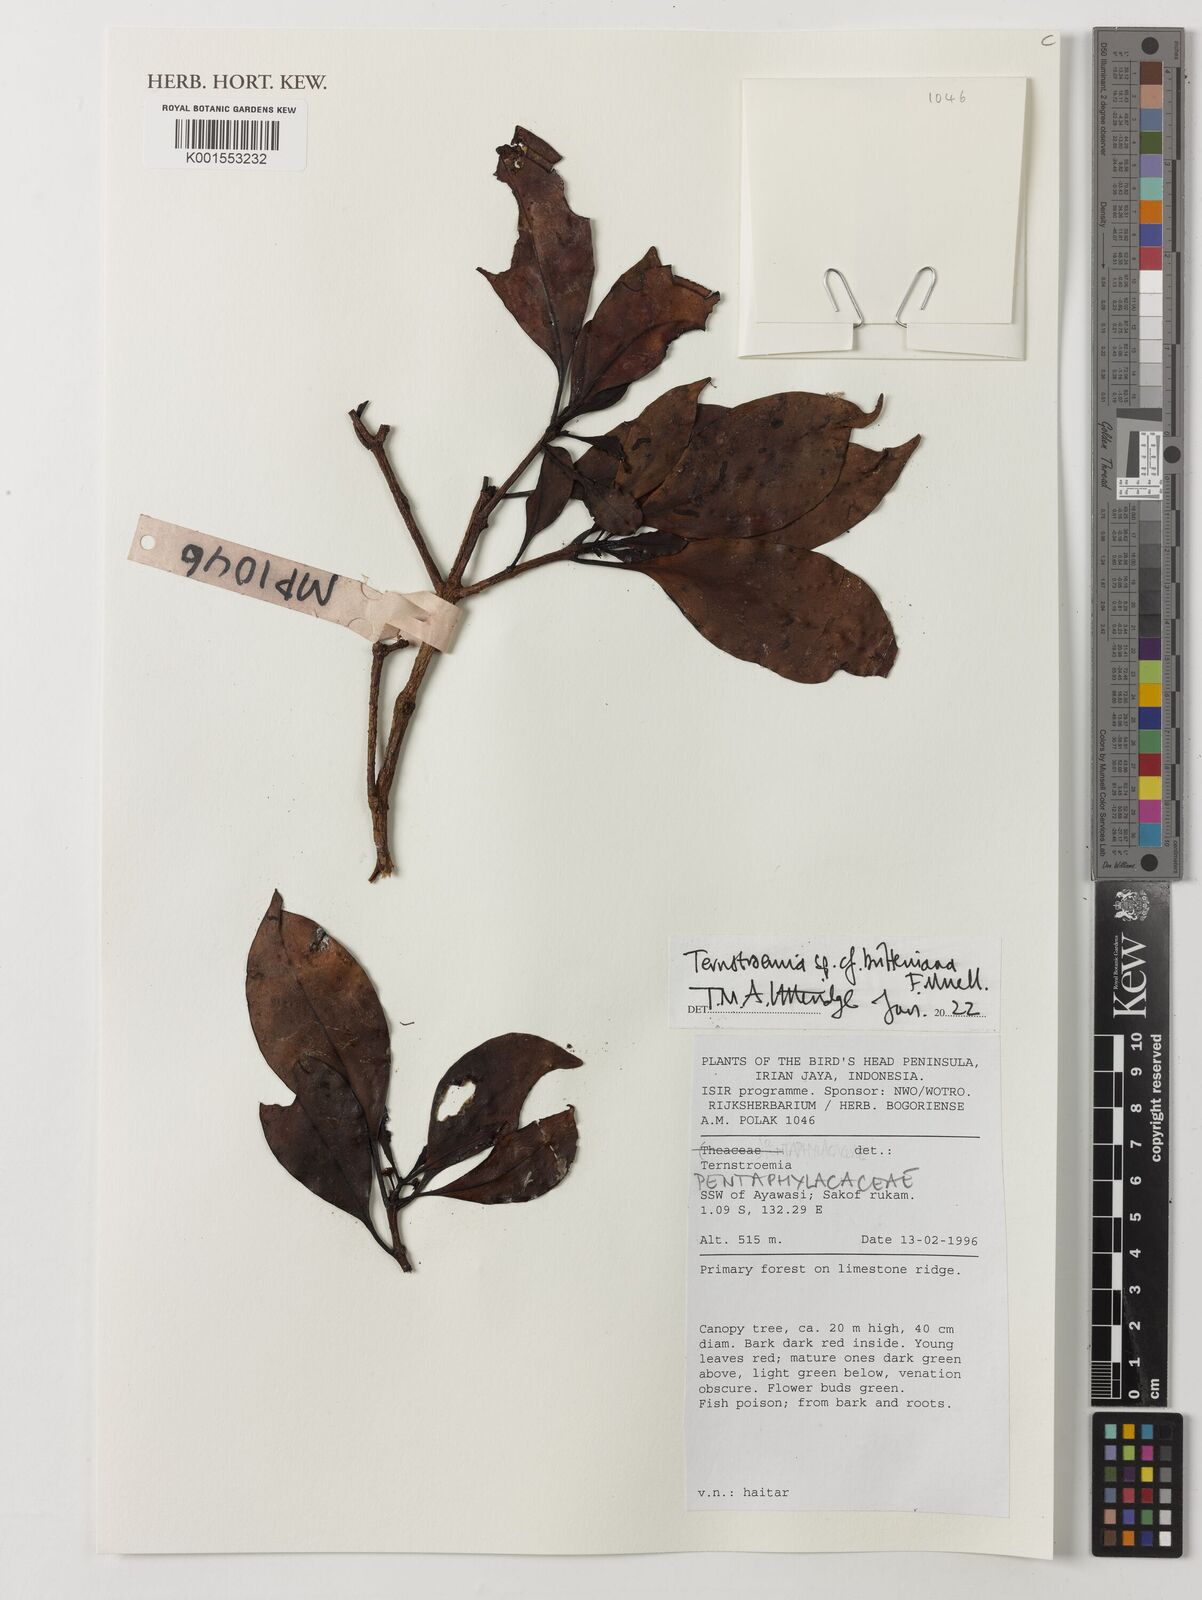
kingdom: Plantae
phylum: Tracheophyta
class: Magnoliopsida
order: Ericales
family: Pentaphylacaceae
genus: Ternstroemia
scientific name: Ternstroemia britteniana
